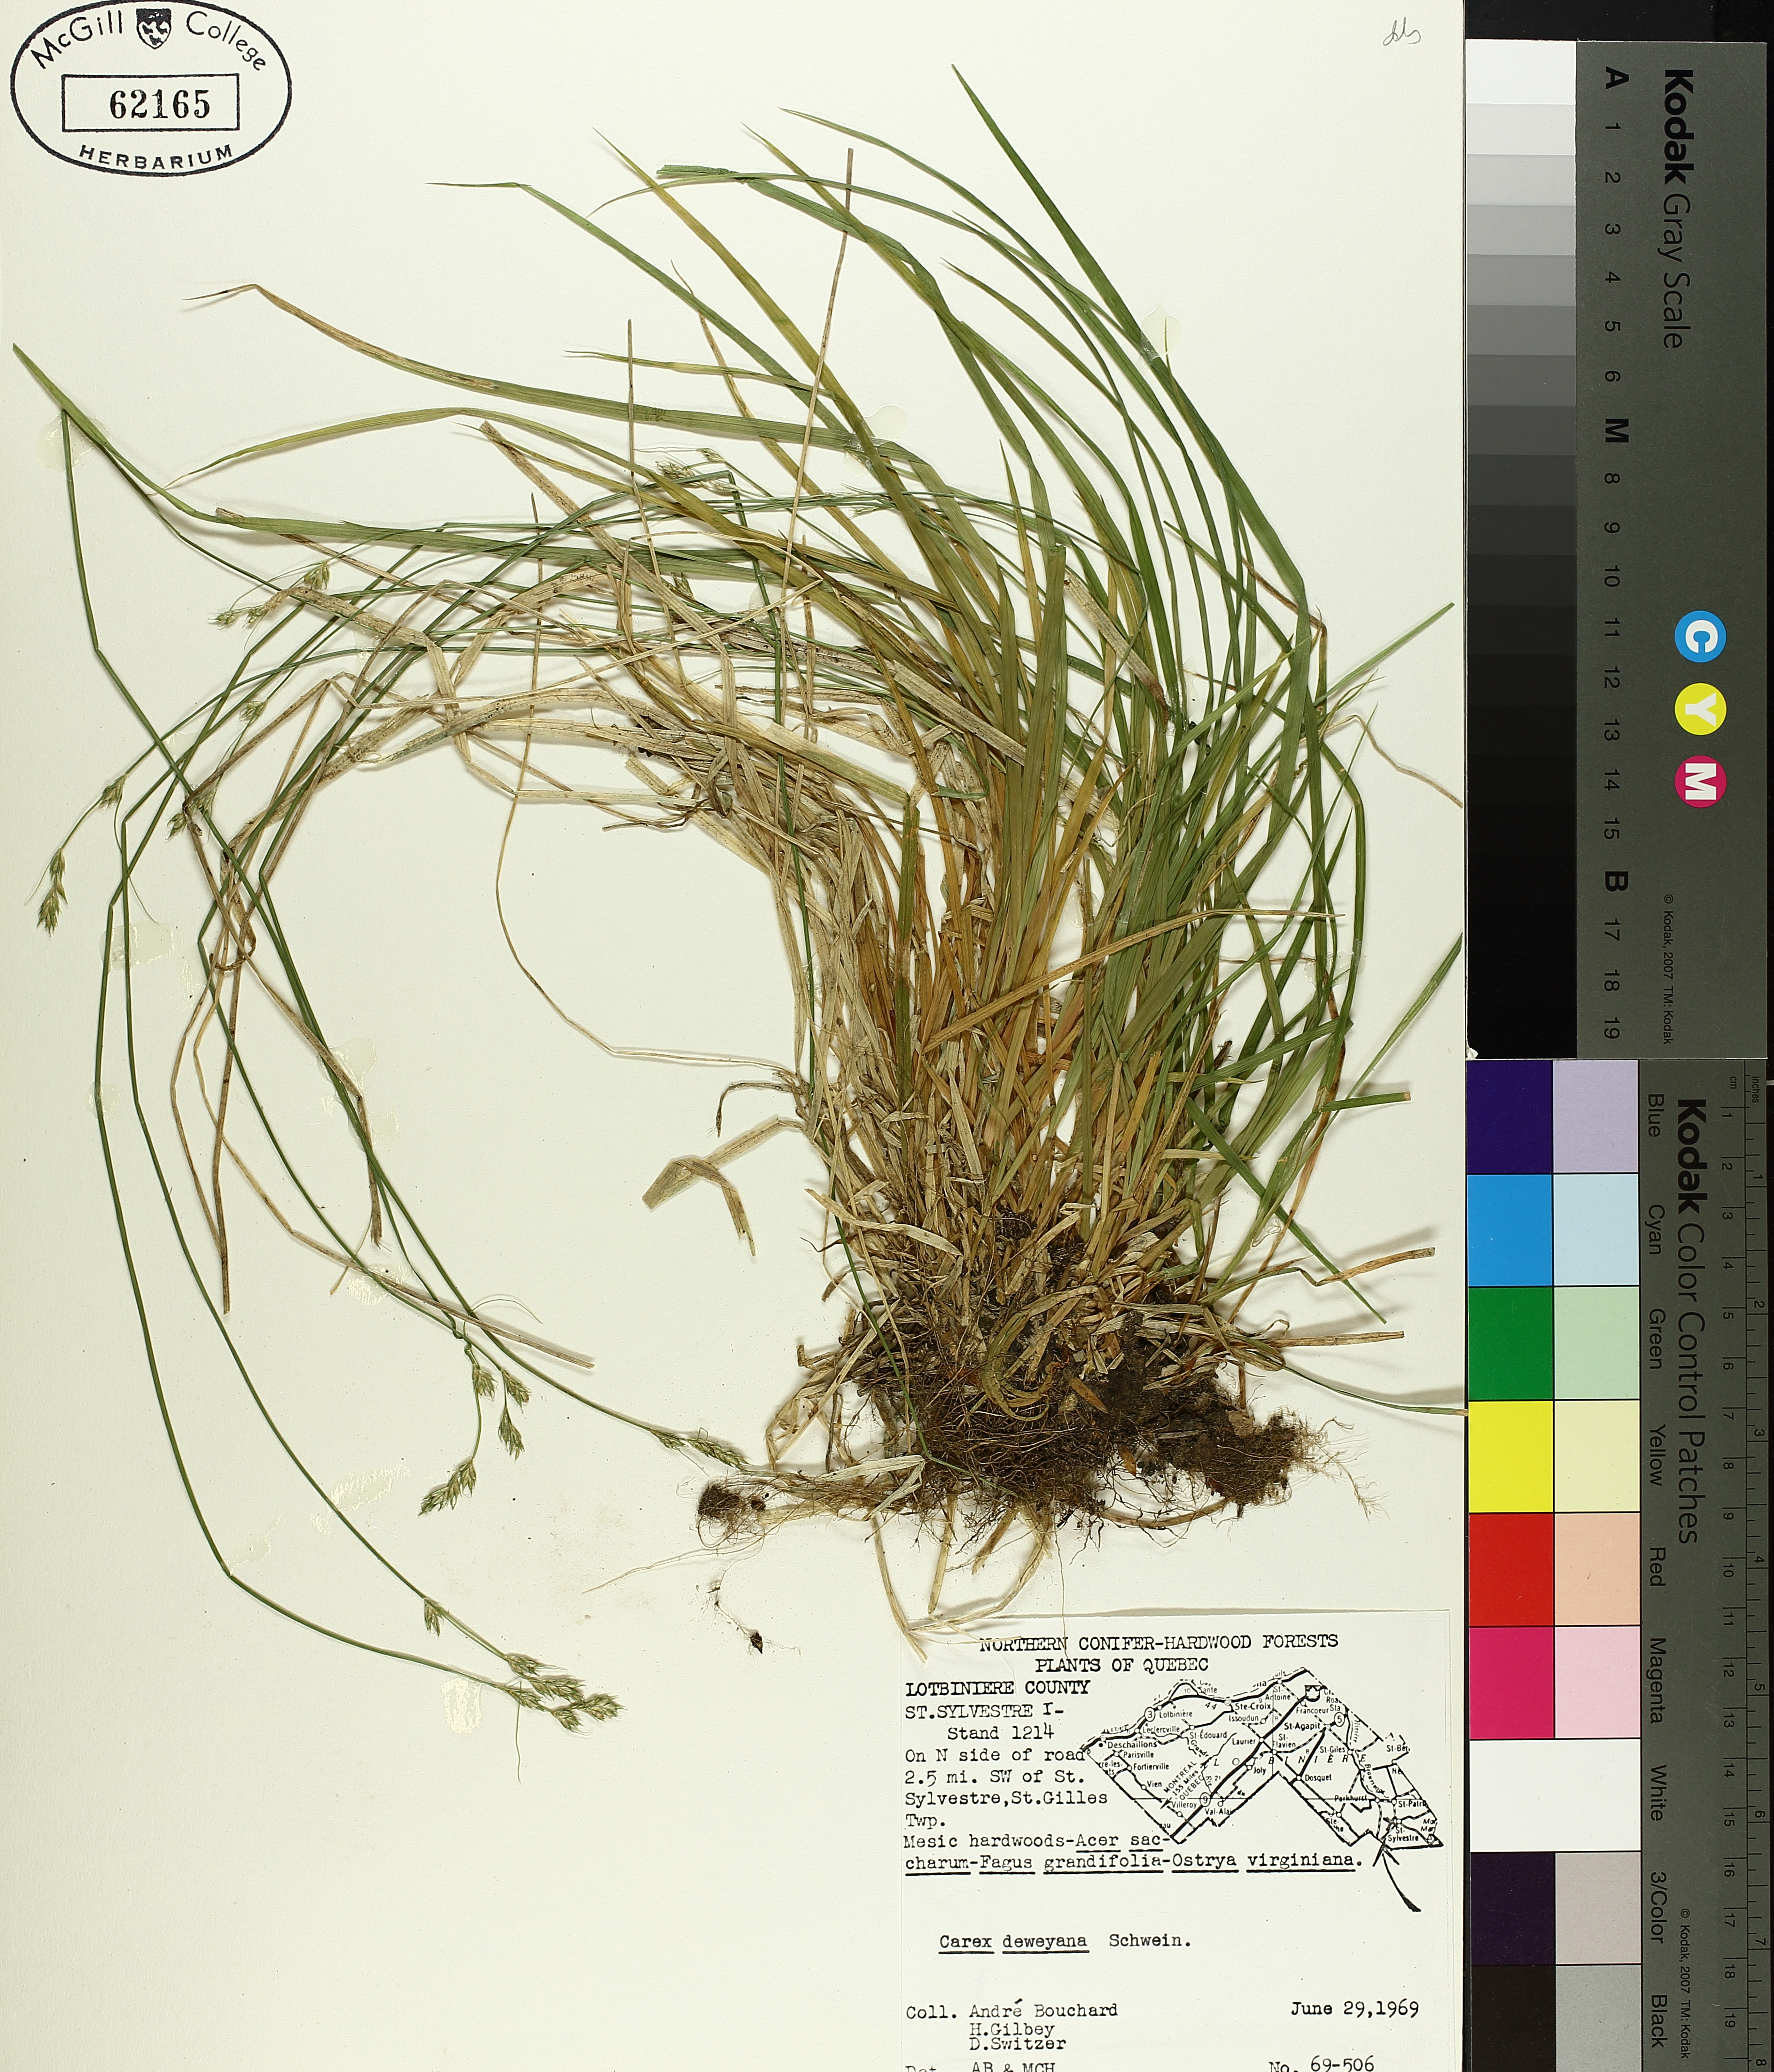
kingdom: Plantae
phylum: Tracheophyta
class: Liliopsida
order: Poales
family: Cyperaceae
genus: Carex
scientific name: Carex deweyana
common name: Dewey's sedge
